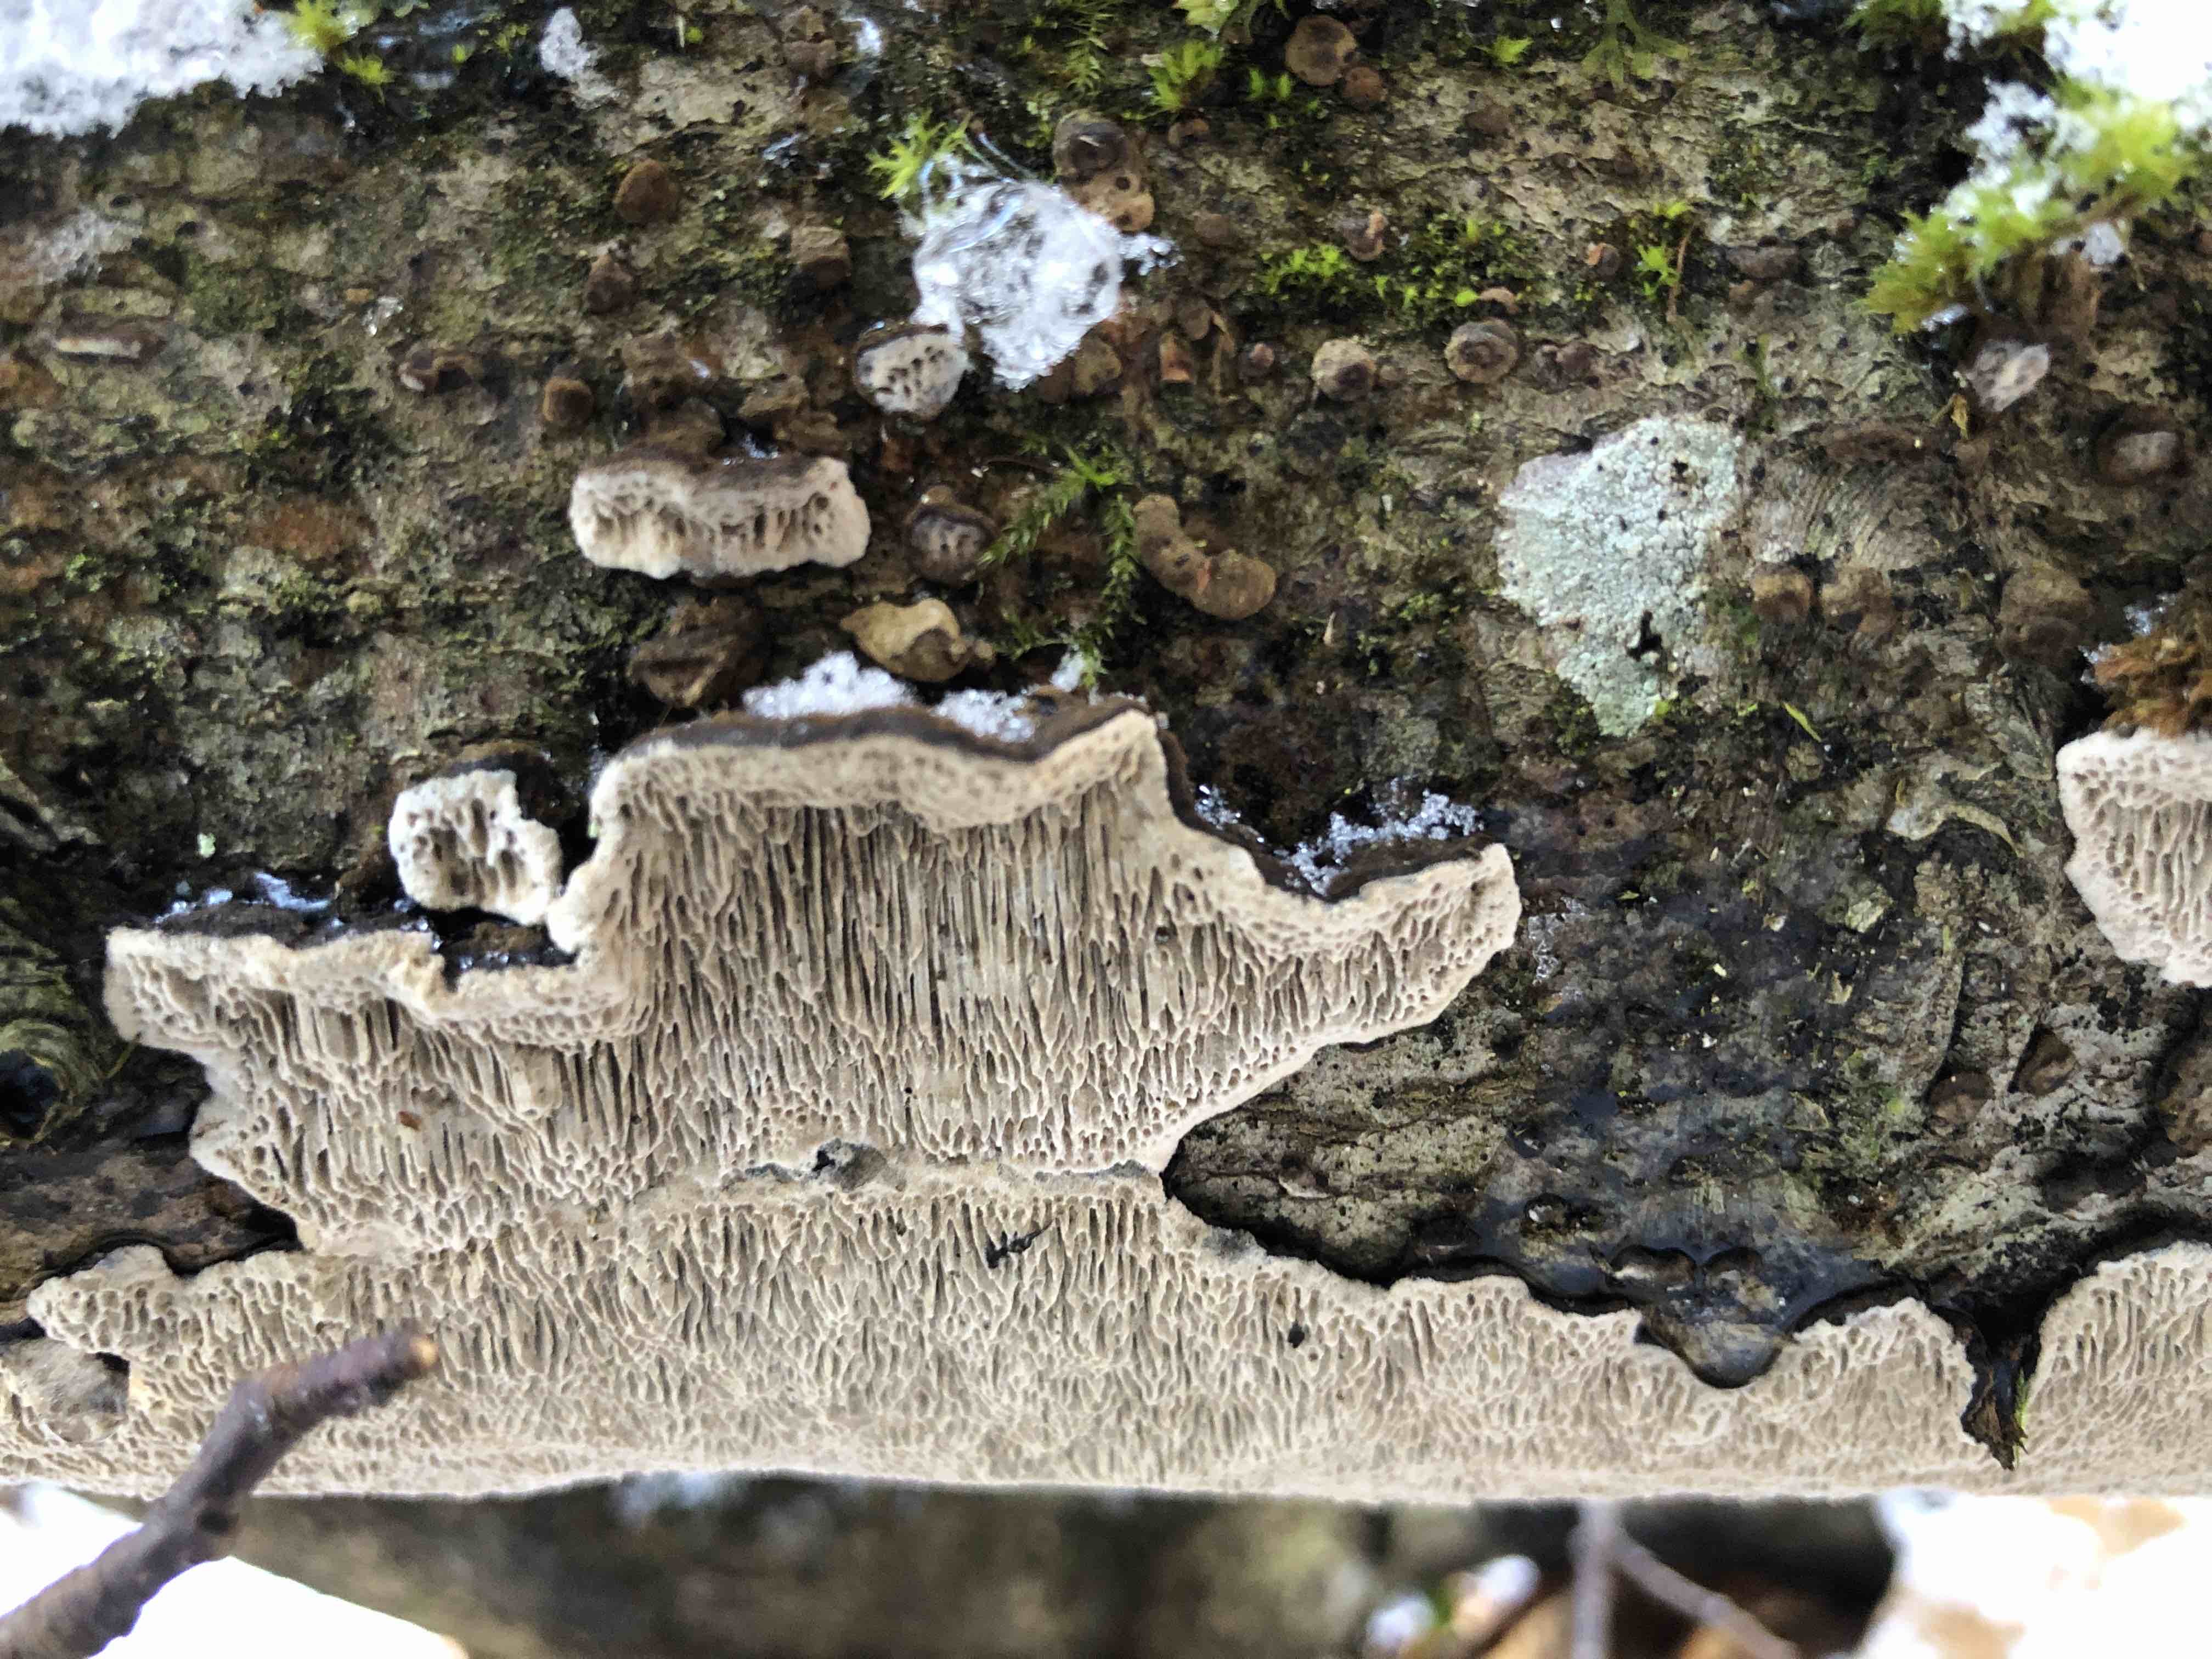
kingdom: Fungi
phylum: Basidiomycota
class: Agaricomycetes
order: Polyporales
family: Polyporaceae
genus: Podofomes
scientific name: Podofomes mollis
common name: blød begporesvamp
